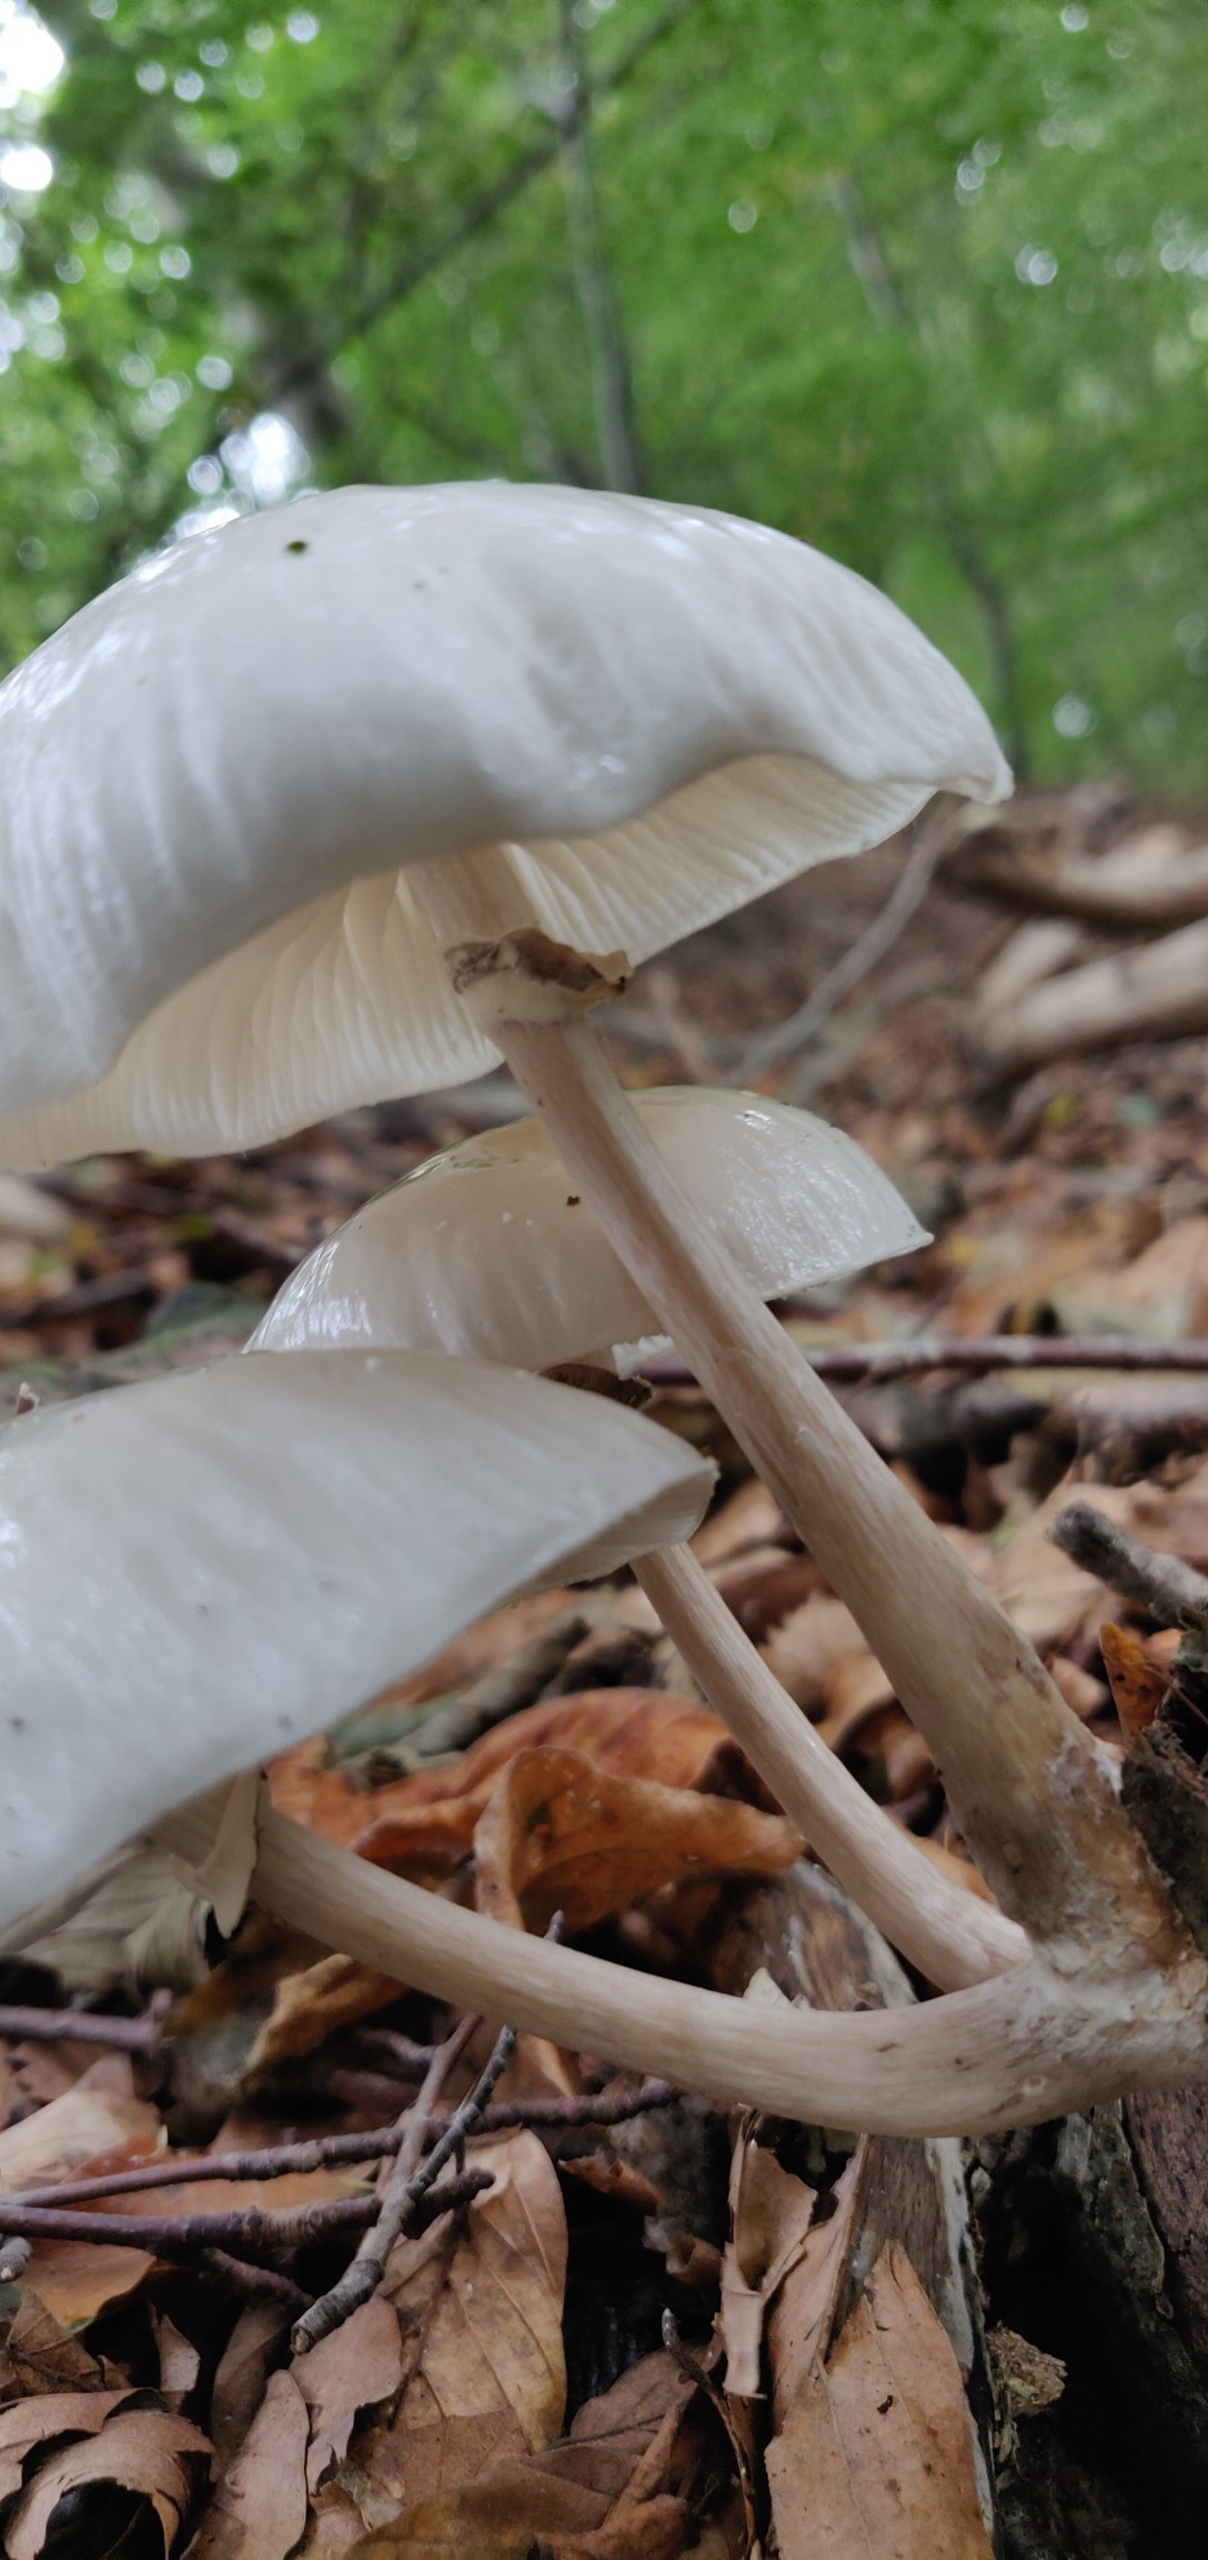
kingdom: Fungi
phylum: Basidiomycota
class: Agaricomycetes
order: Agaricales
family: Physalacriaceae
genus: Mucidula
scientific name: Mucidula mucida
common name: Porcelænshat
